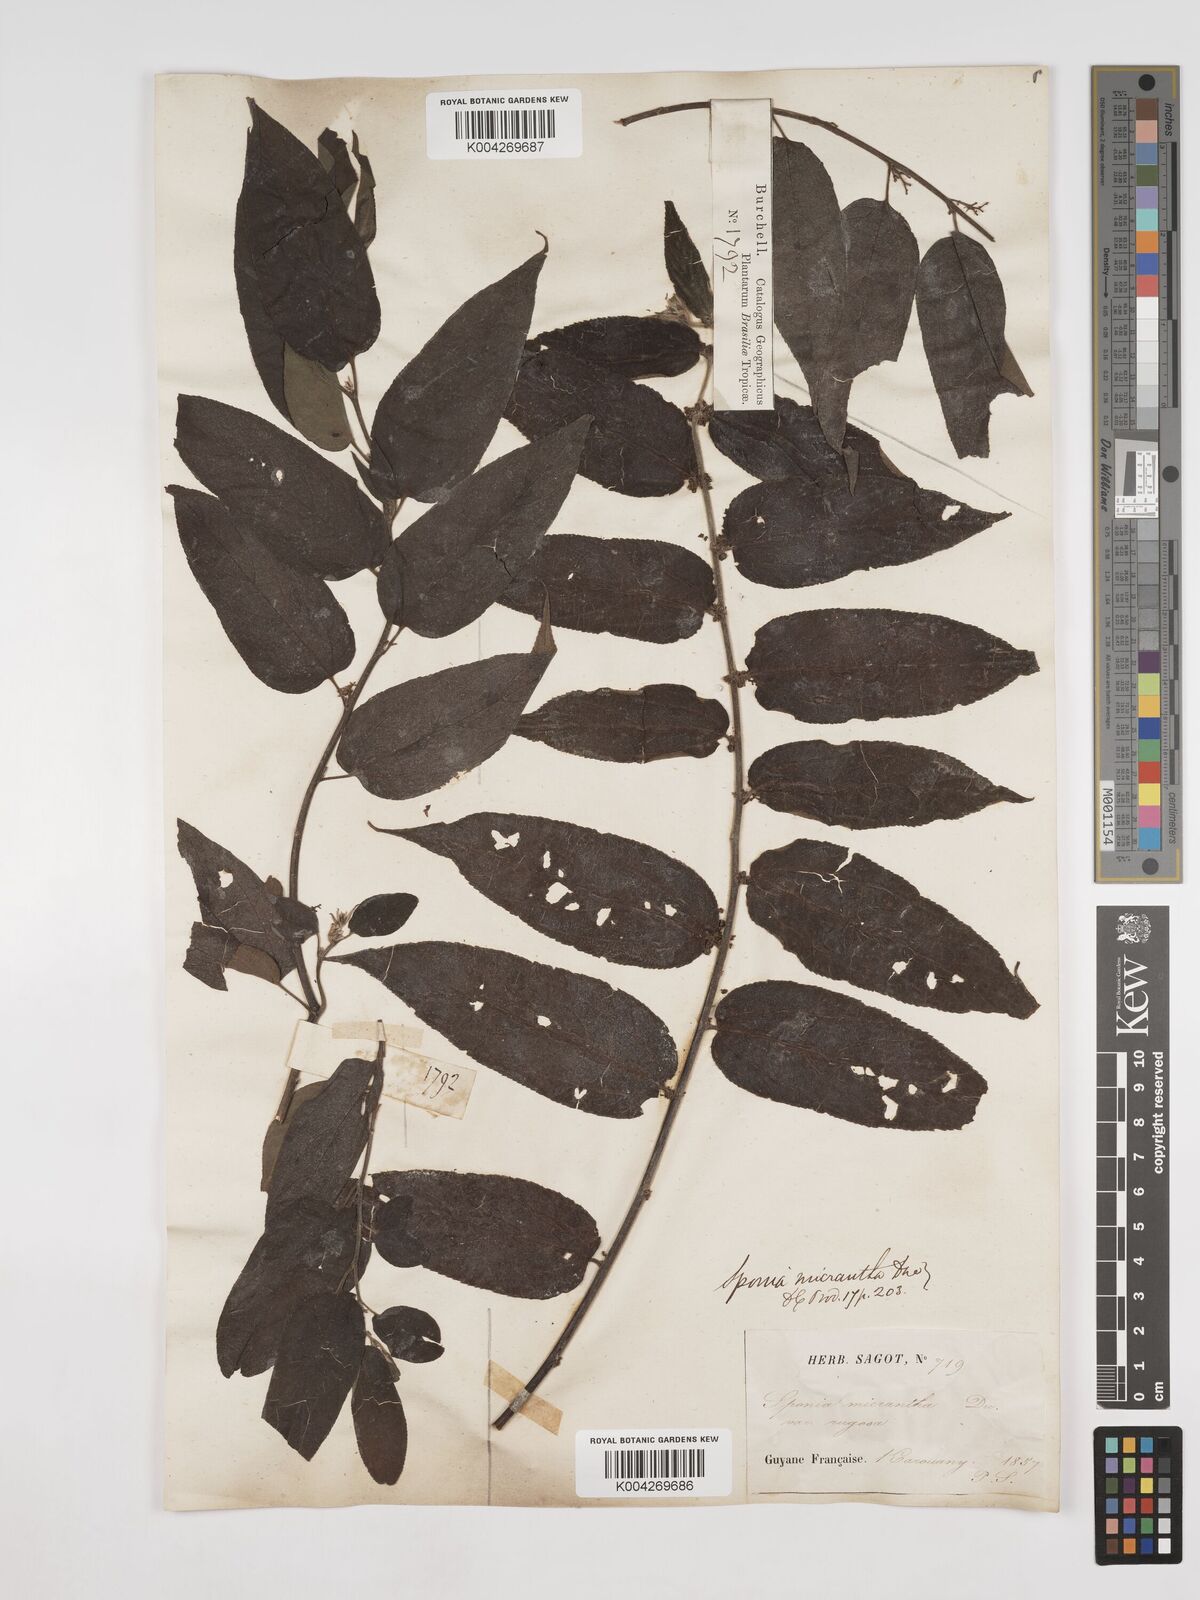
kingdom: Plantae
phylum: Tracheophyta
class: Magnoliopsida
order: Rosales
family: Cannabaceae
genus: Trema
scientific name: Trema micranthum
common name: Jamaican nettletree
